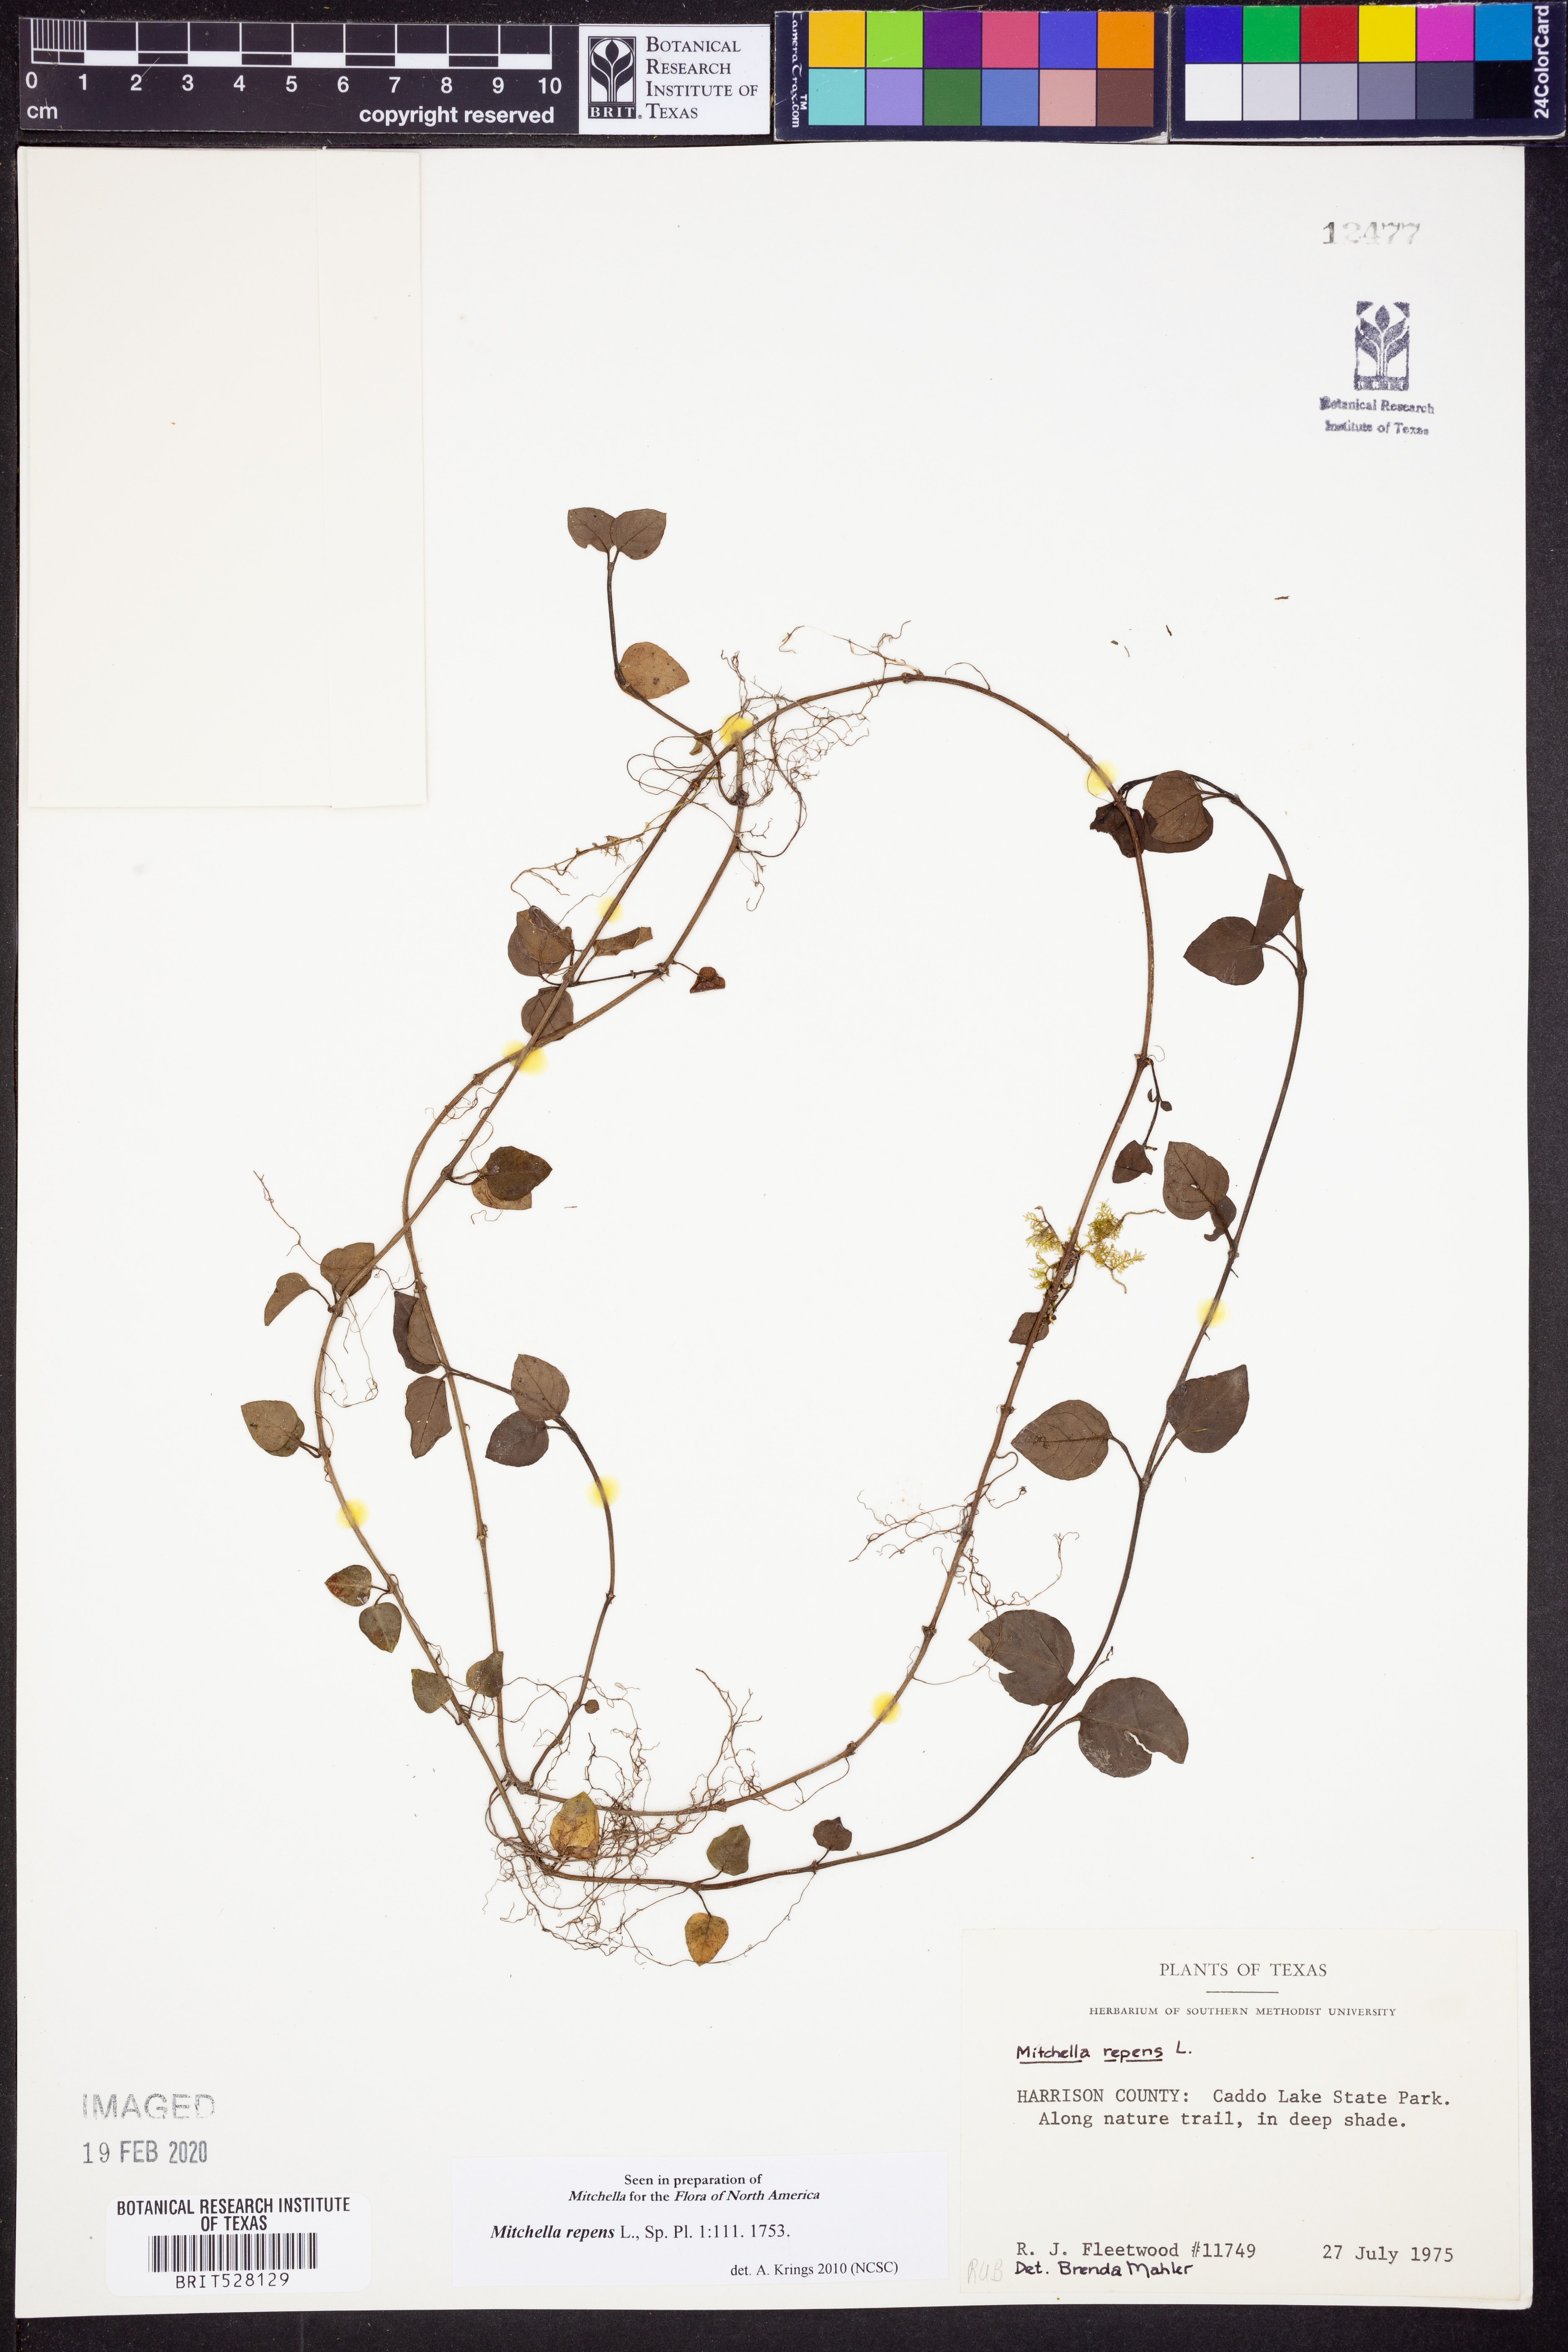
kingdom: Plantae
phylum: Tracheophyta
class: Magnoliopsida
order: Gentianales
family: Rubiaceae
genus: Mitchella
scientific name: Mitchella repens
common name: Partridge-berry
